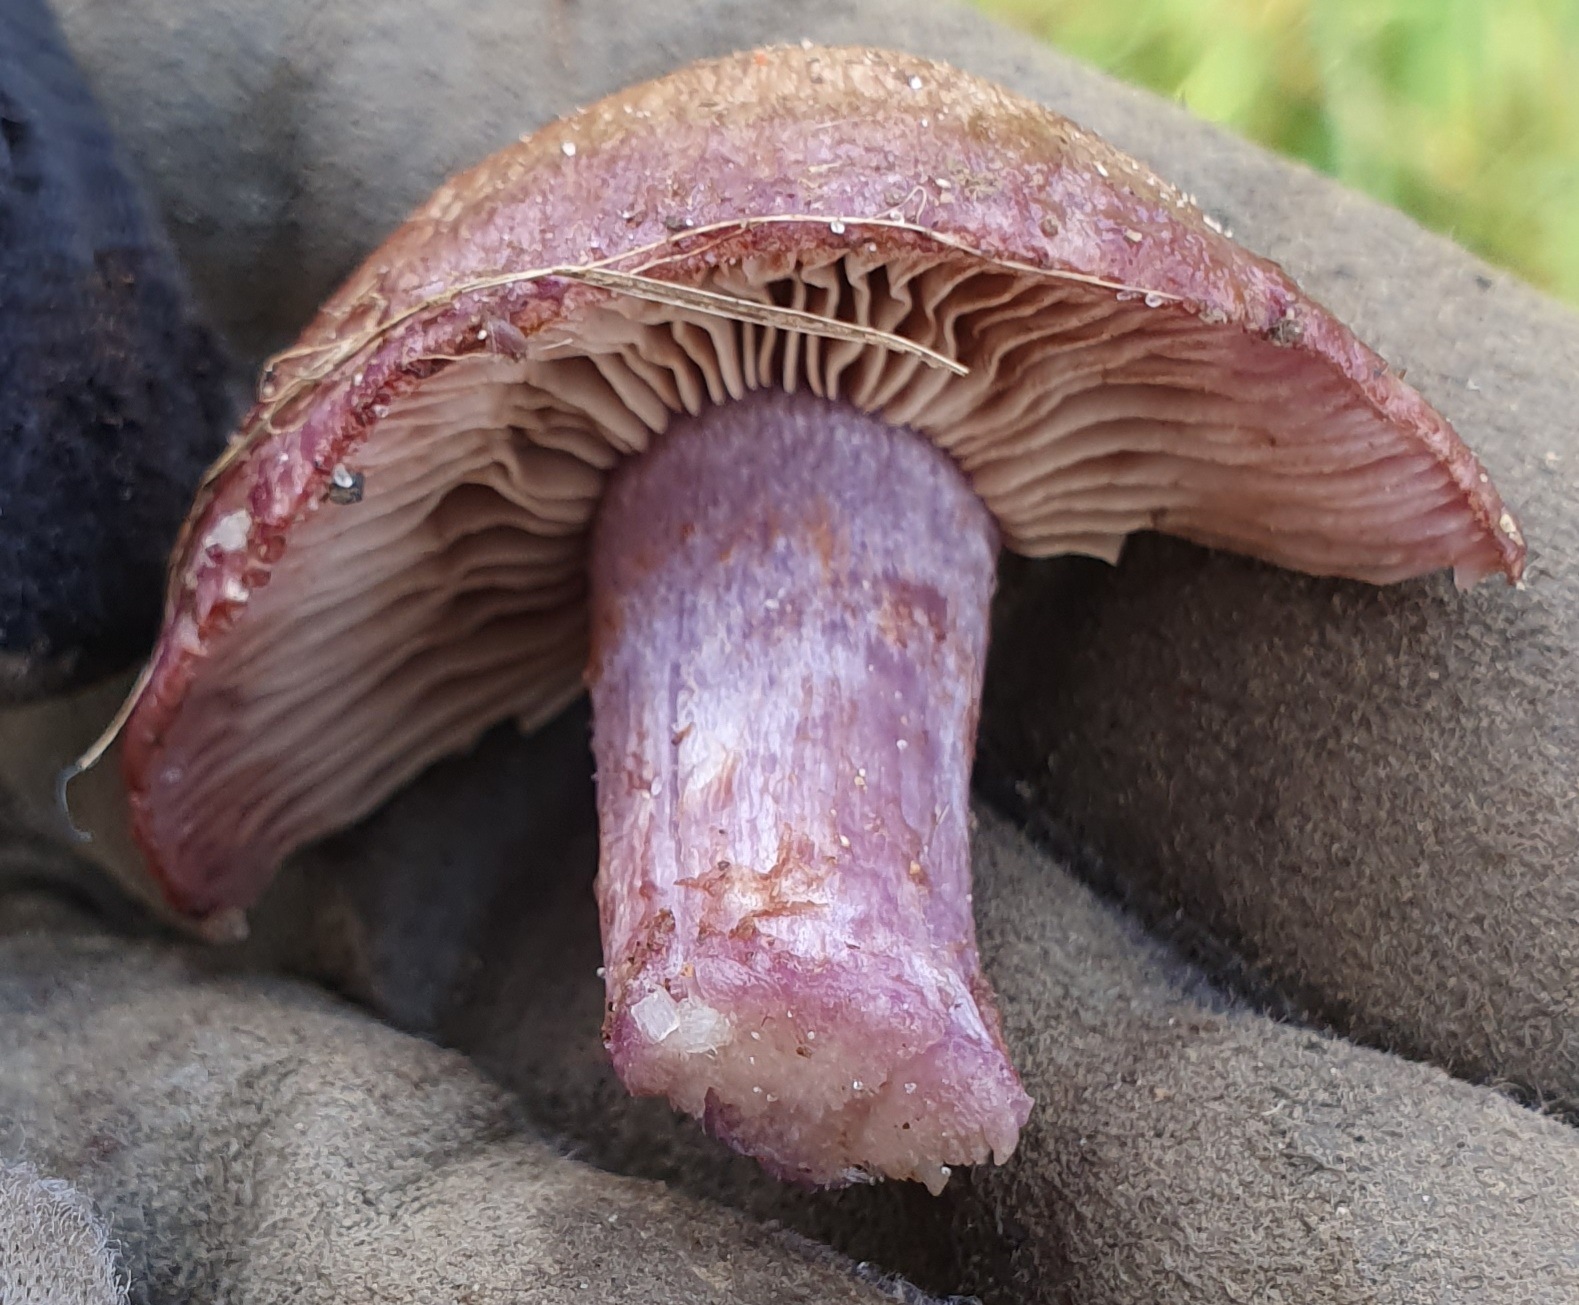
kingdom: Fungi
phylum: Basidiomycota
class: Agaricomycetes
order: Agaricales
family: Cortinariaceae
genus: Cortinarius
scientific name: Cortinarius
